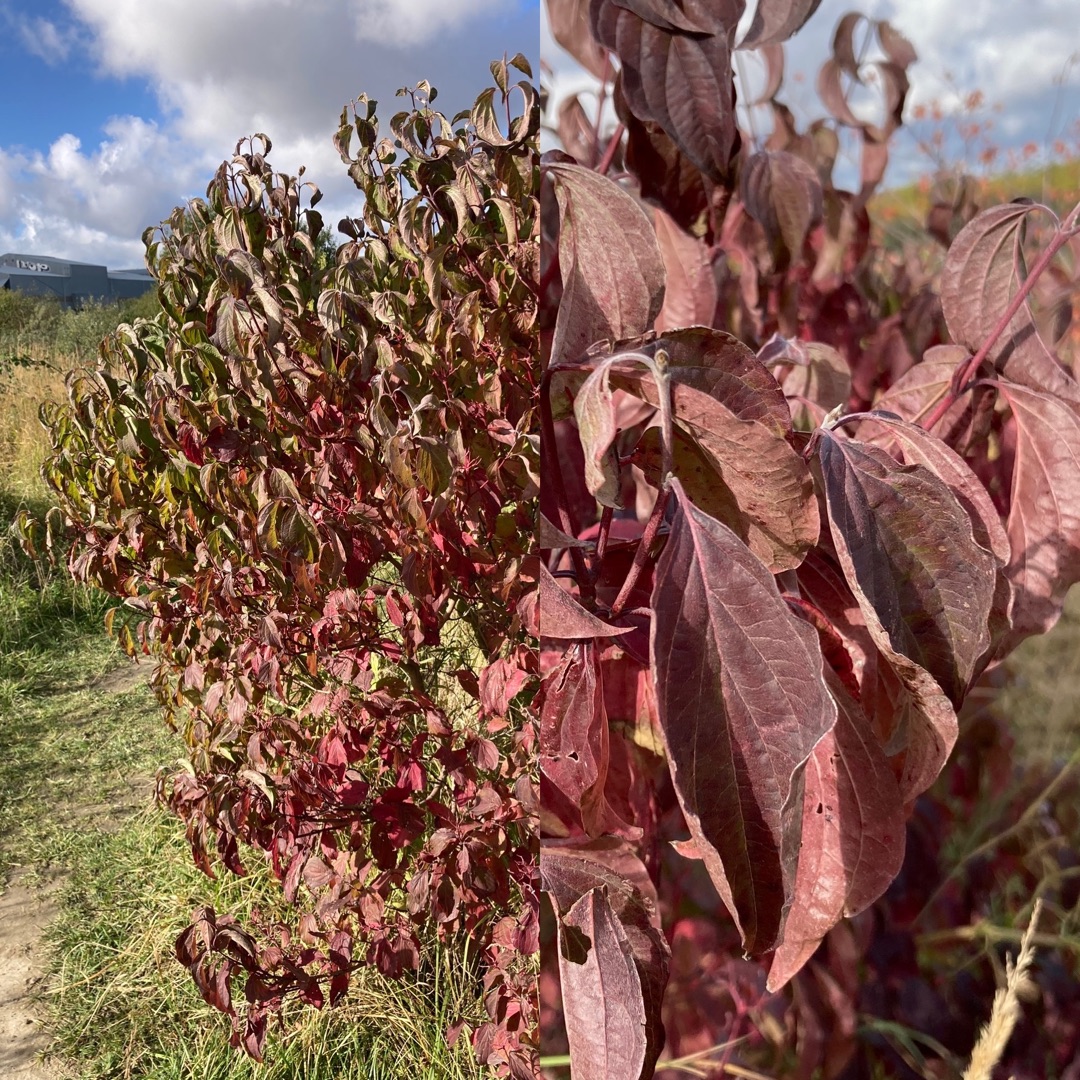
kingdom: Plantae
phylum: Tracheophyta
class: Magnoliopsida
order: Cornales
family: Cornaceae
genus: Cornus
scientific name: Cornus sanguinea
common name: Rød kornel
